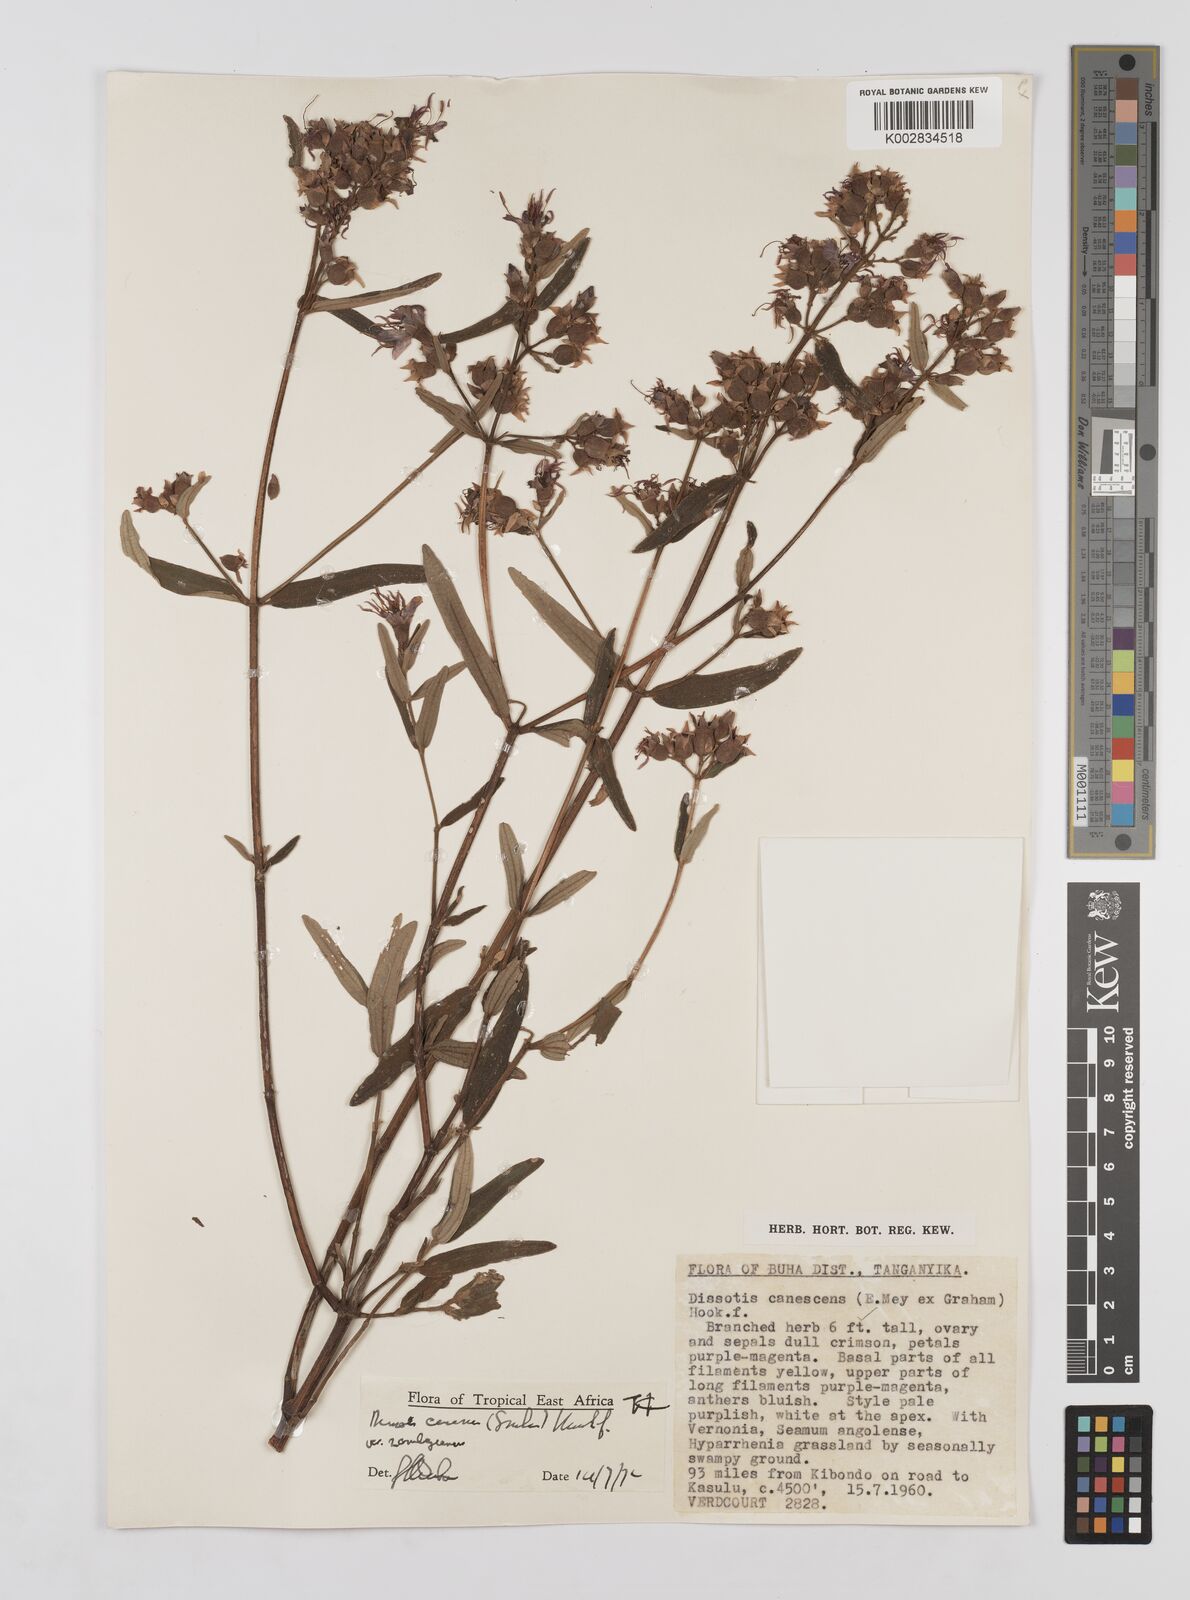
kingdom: Plantae
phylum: Tracheophyta
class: Magnoliopsida
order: Myrtales
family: Melastomataceae
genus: Argyrella
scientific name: Argyrella canescens
